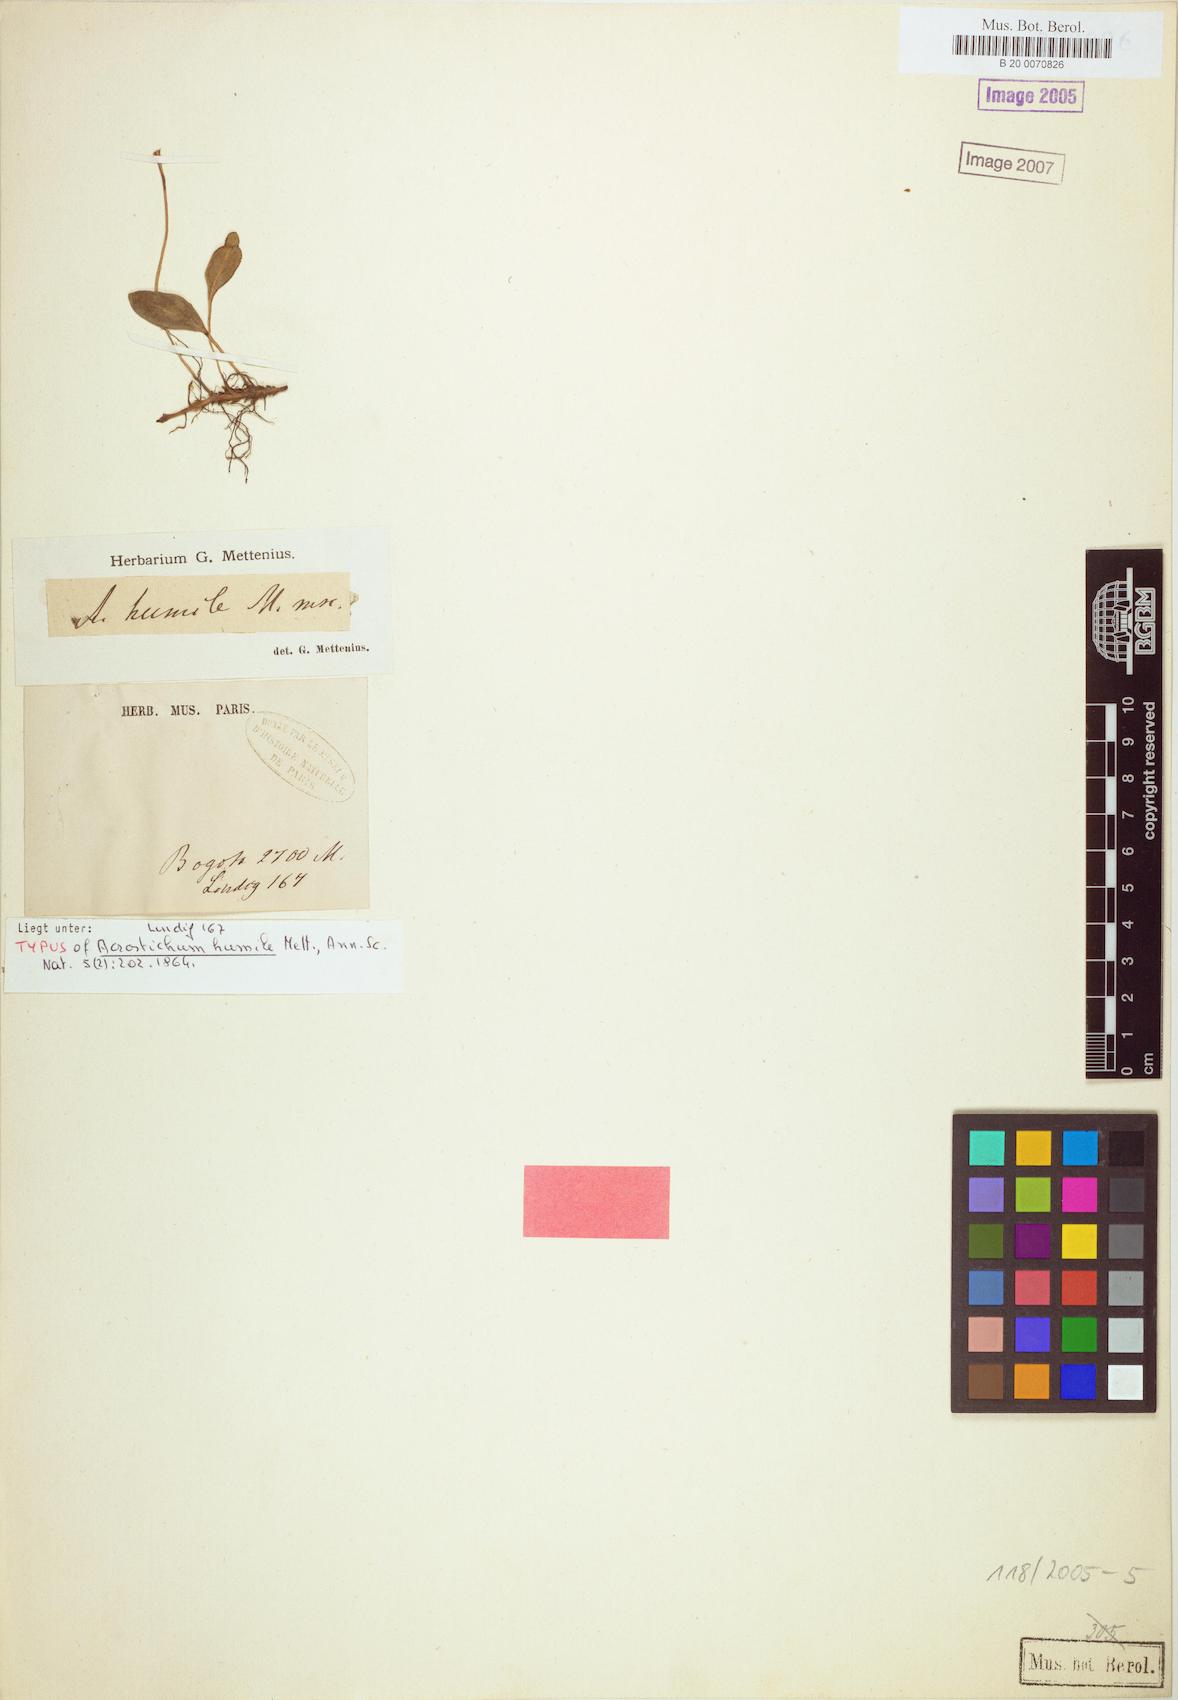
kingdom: Plantae
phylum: Tracheophyta
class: Polypodiopsida
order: Polypodiales
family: Dryopteridaceae
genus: Elaphoglossum
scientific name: Elaphoglossum revolutum
